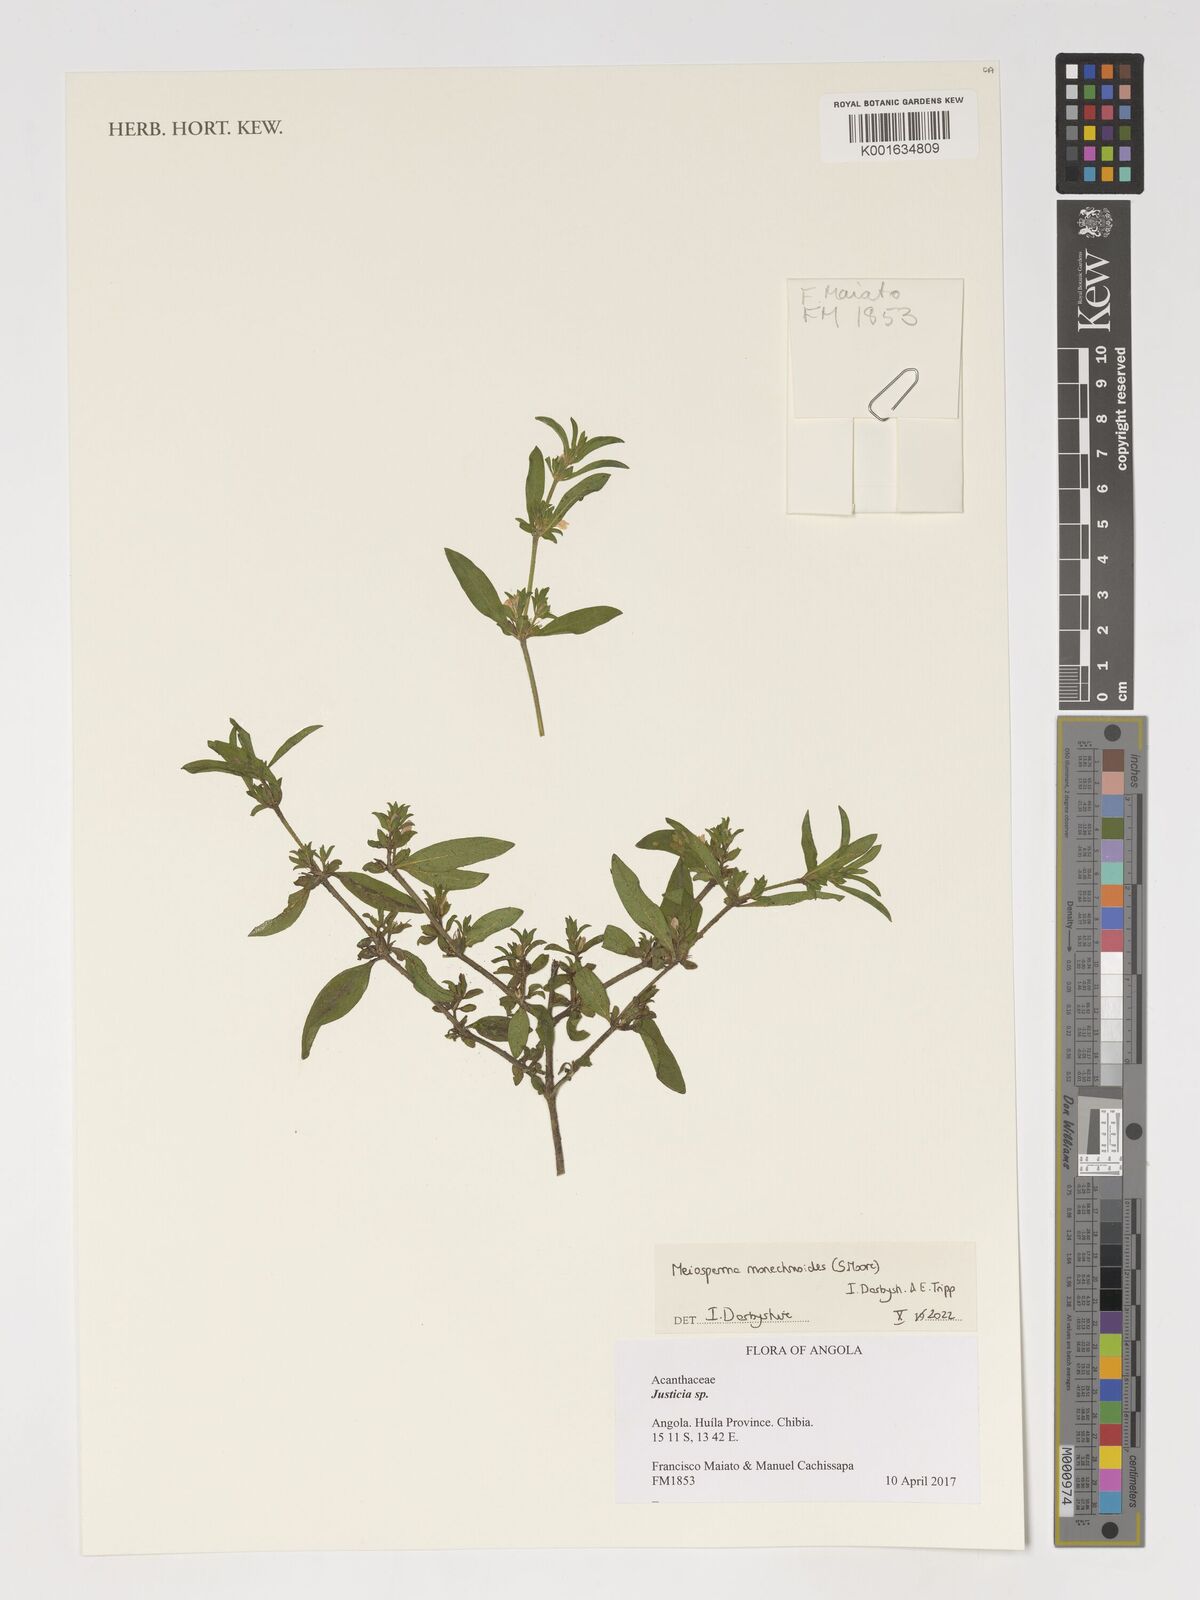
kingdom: Plantae
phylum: Tracheophyta
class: Magnoliopsida
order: Lamiales
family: Acanthaceae
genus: Monechma
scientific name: Monechma
